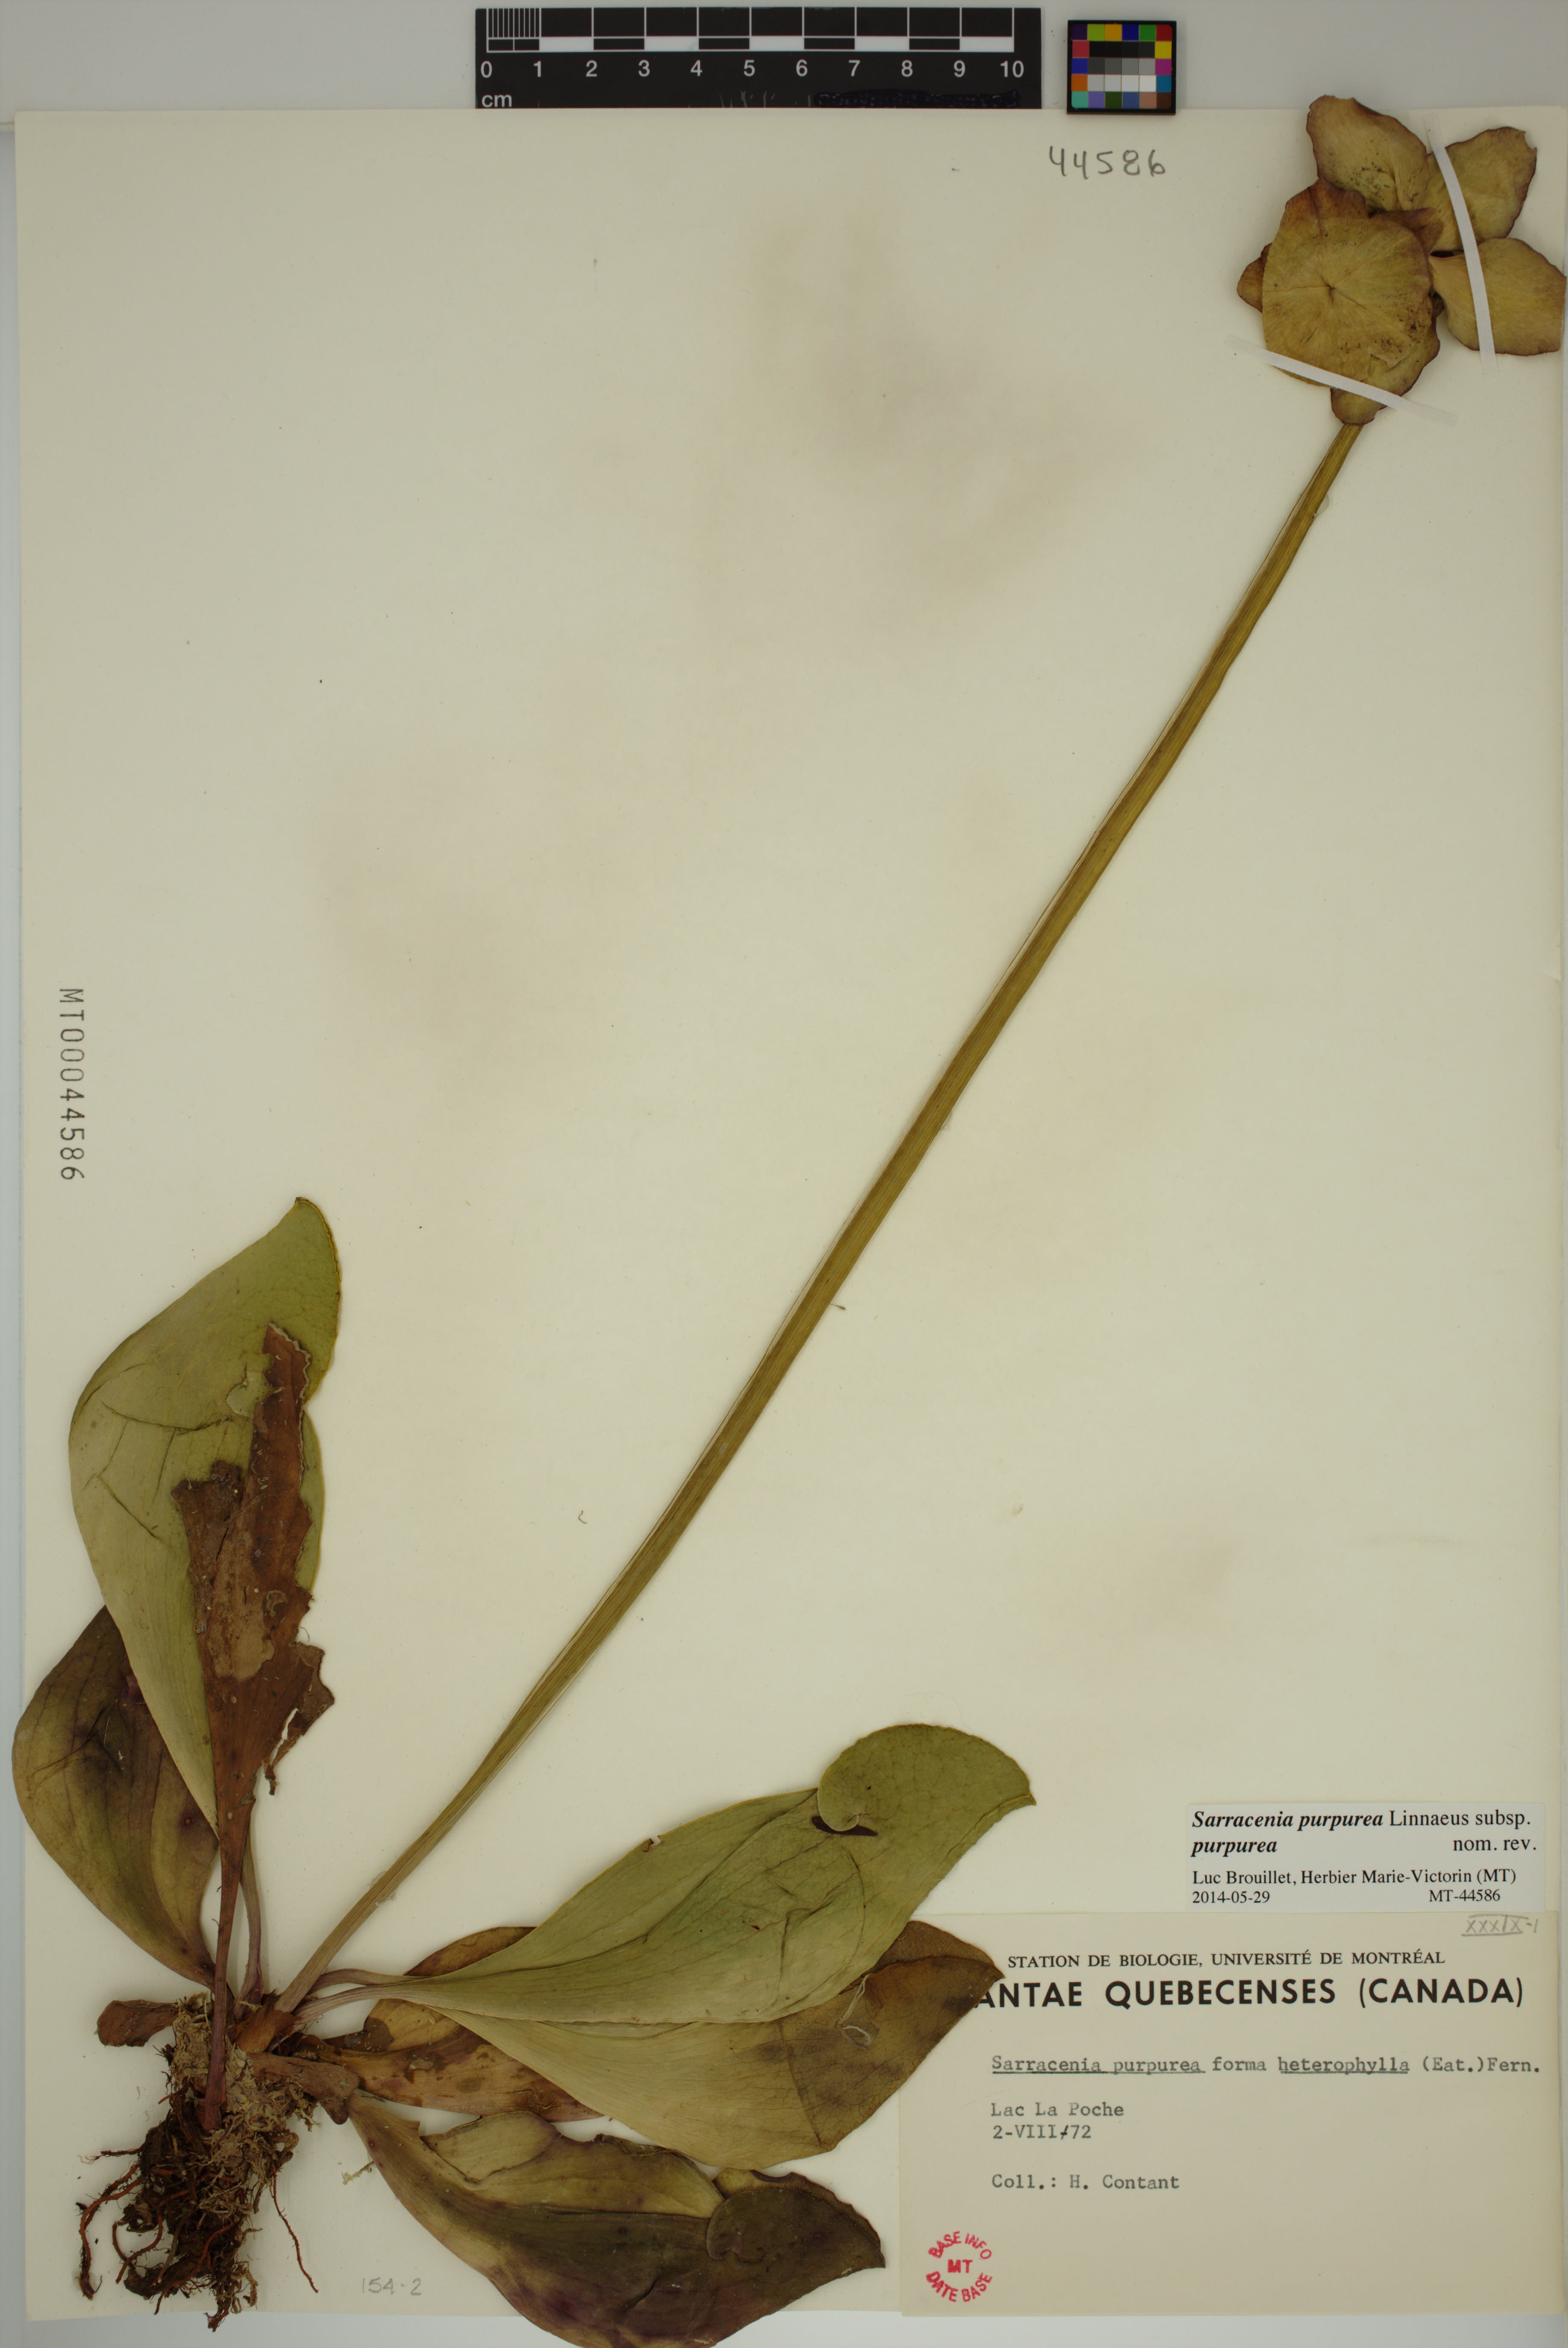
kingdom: Plantae
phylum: Tracheophyta
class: Magnoliopsida
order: Ericales
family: Sarraceniaceae
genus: Sarracenia
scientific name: Sarracenia purpurea
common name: Pitcherplant
